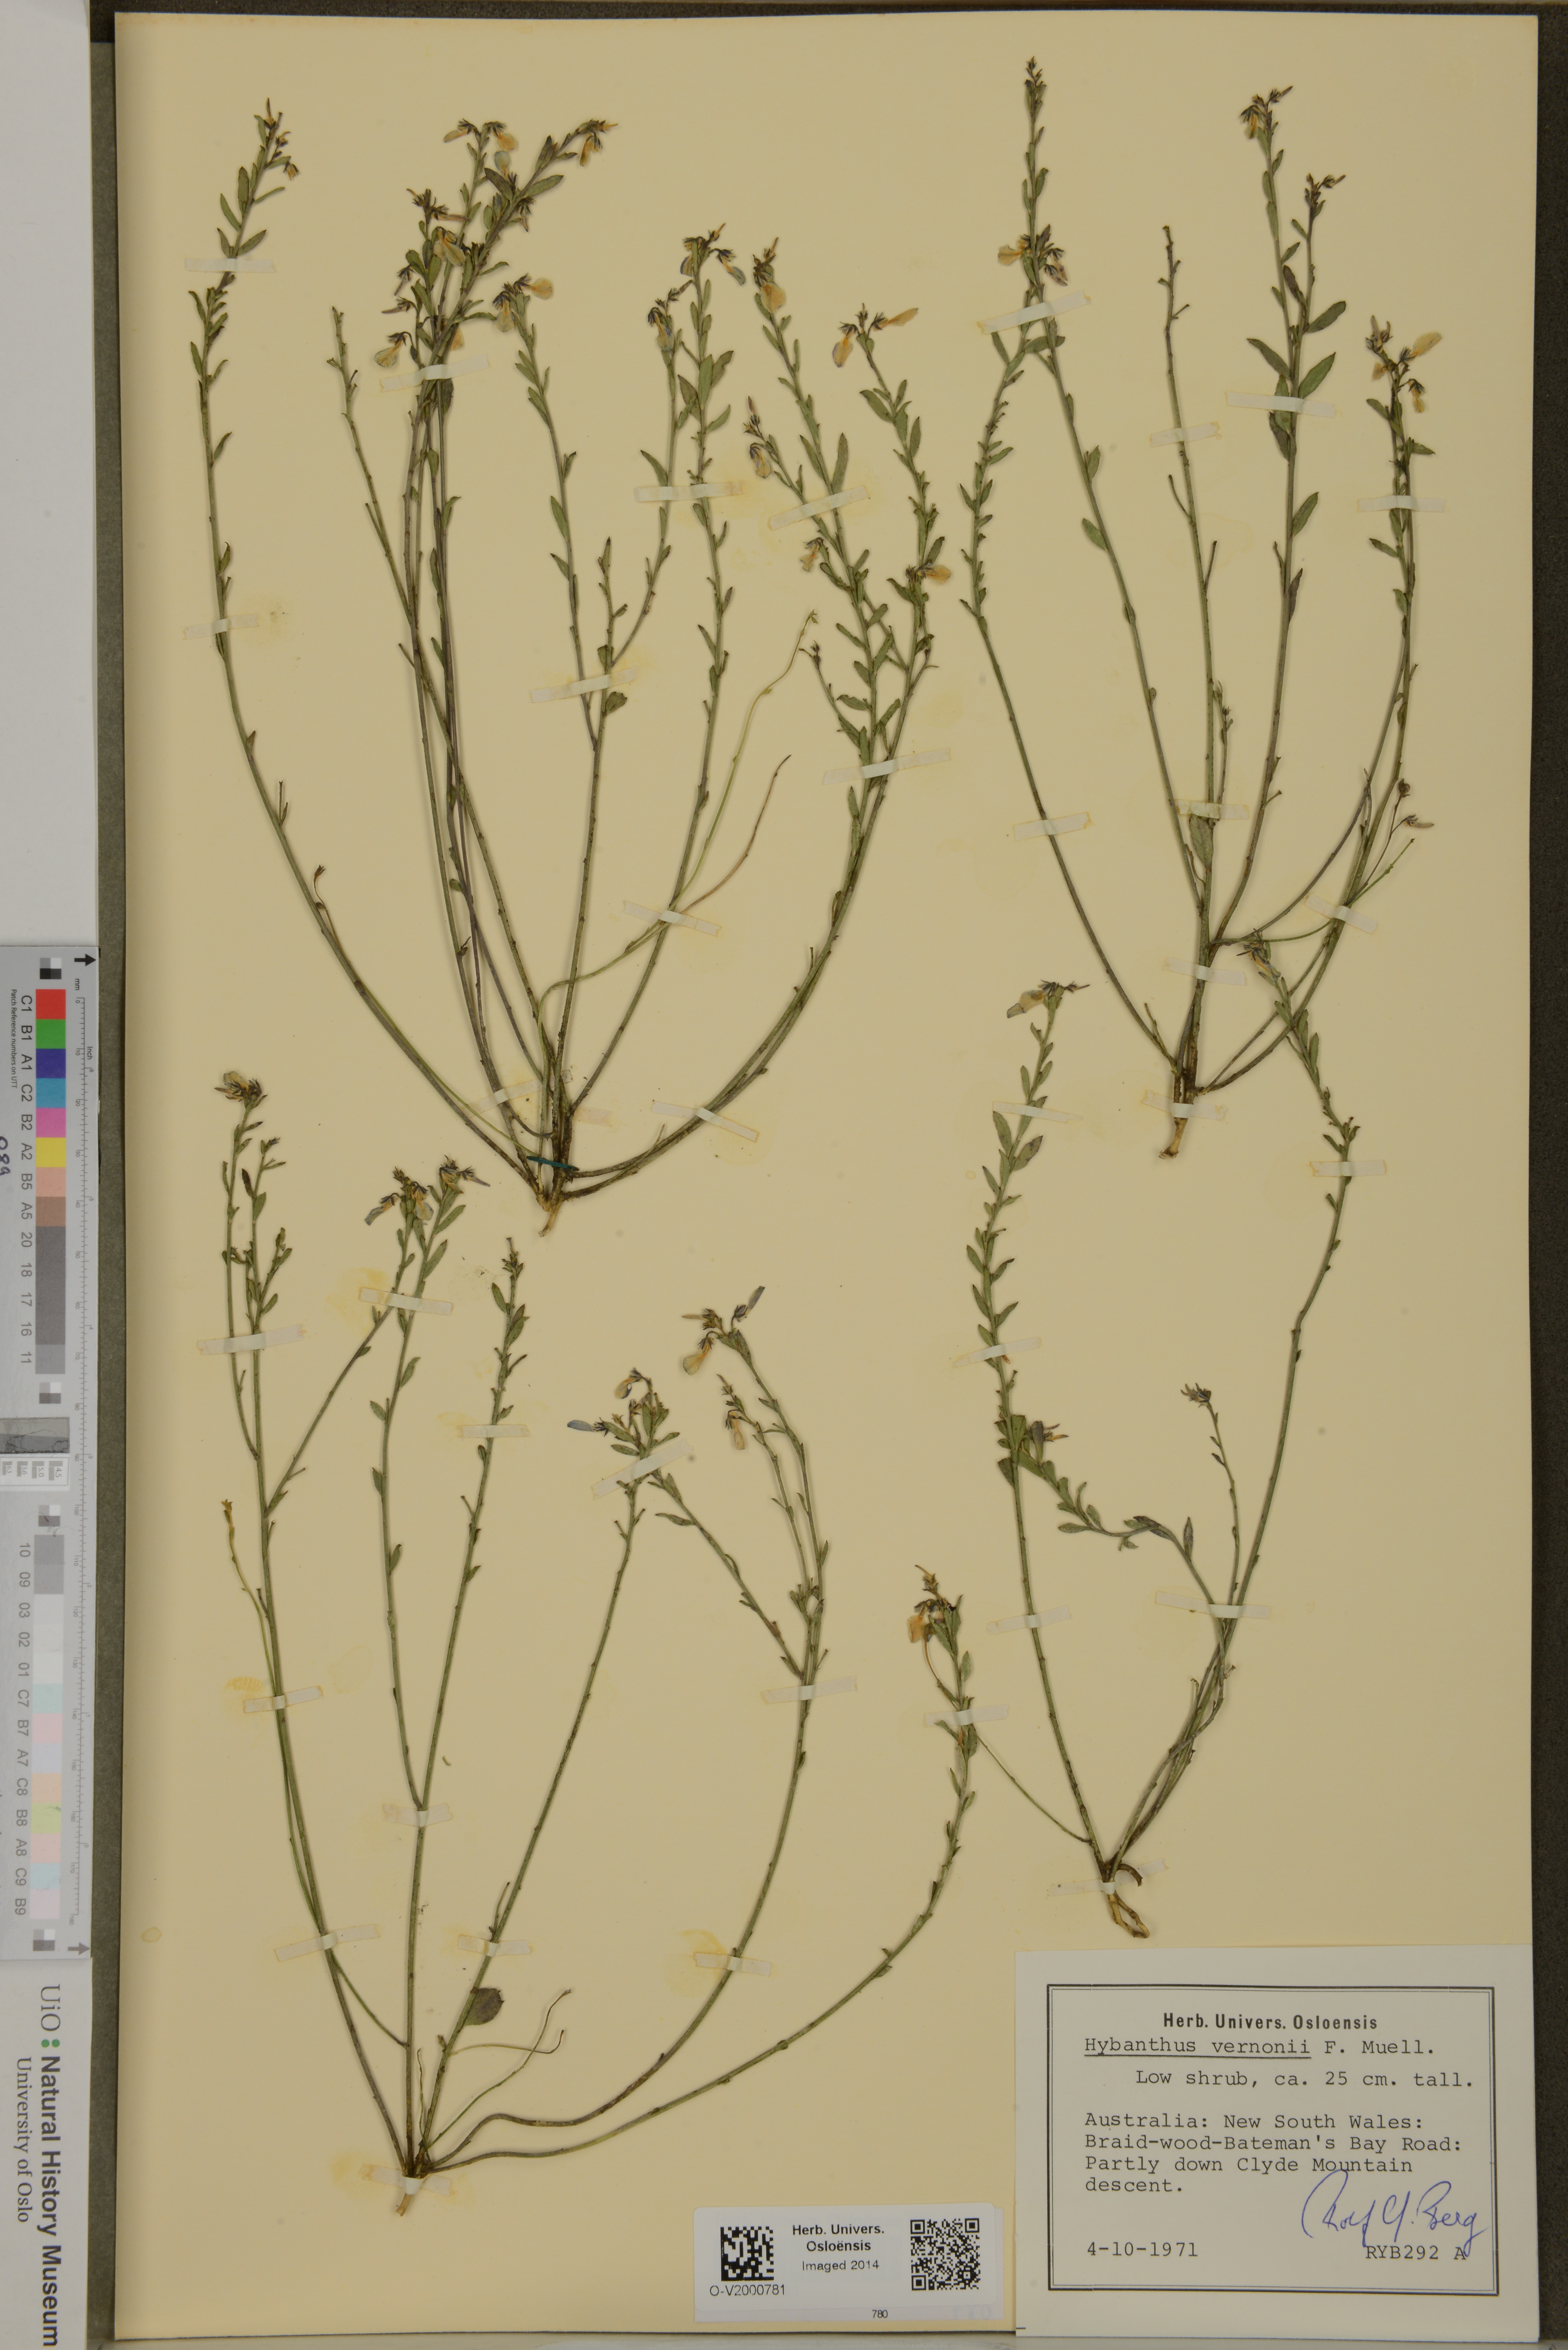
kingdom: Plantae
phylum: Tracheophyta
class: Magnoliopsida
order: Malpighiales
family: Violaceae
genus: Pigea
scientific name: Pigea vernonii
